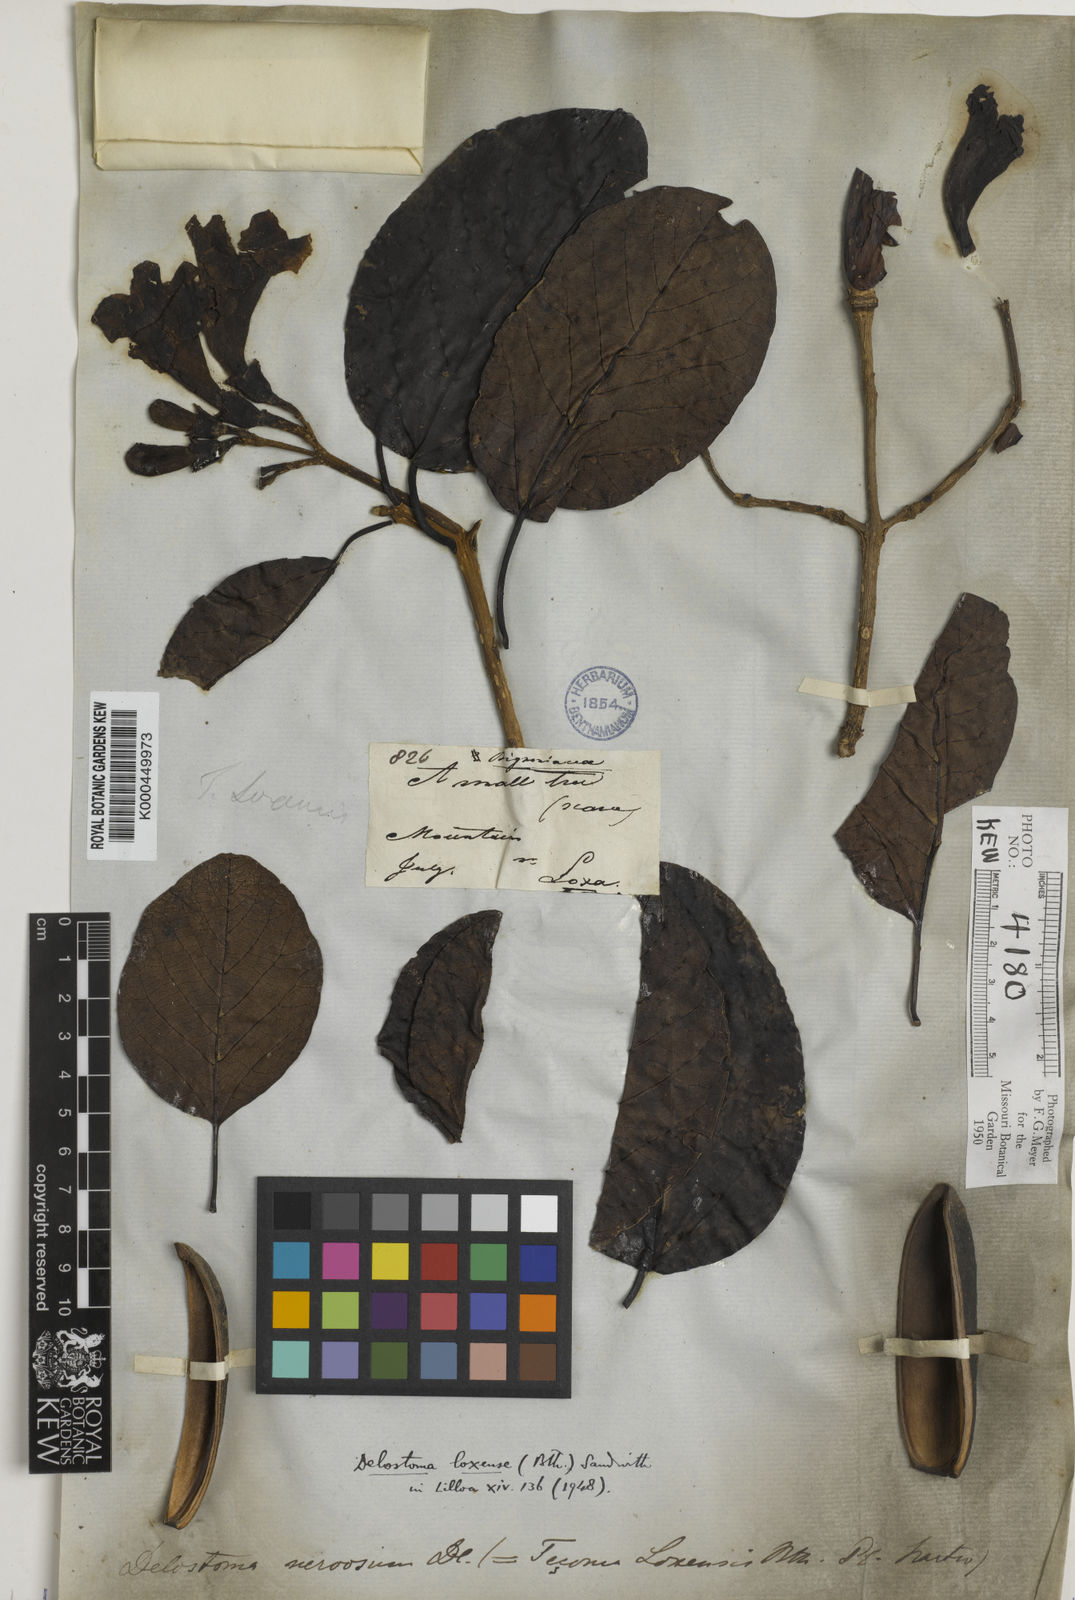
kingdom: Plantae
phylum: Tracheophyta
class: Magnoliopsida
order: Lamiales
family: Bignoniaceae
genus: Delostoma
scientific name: Delostoma integrifolium
